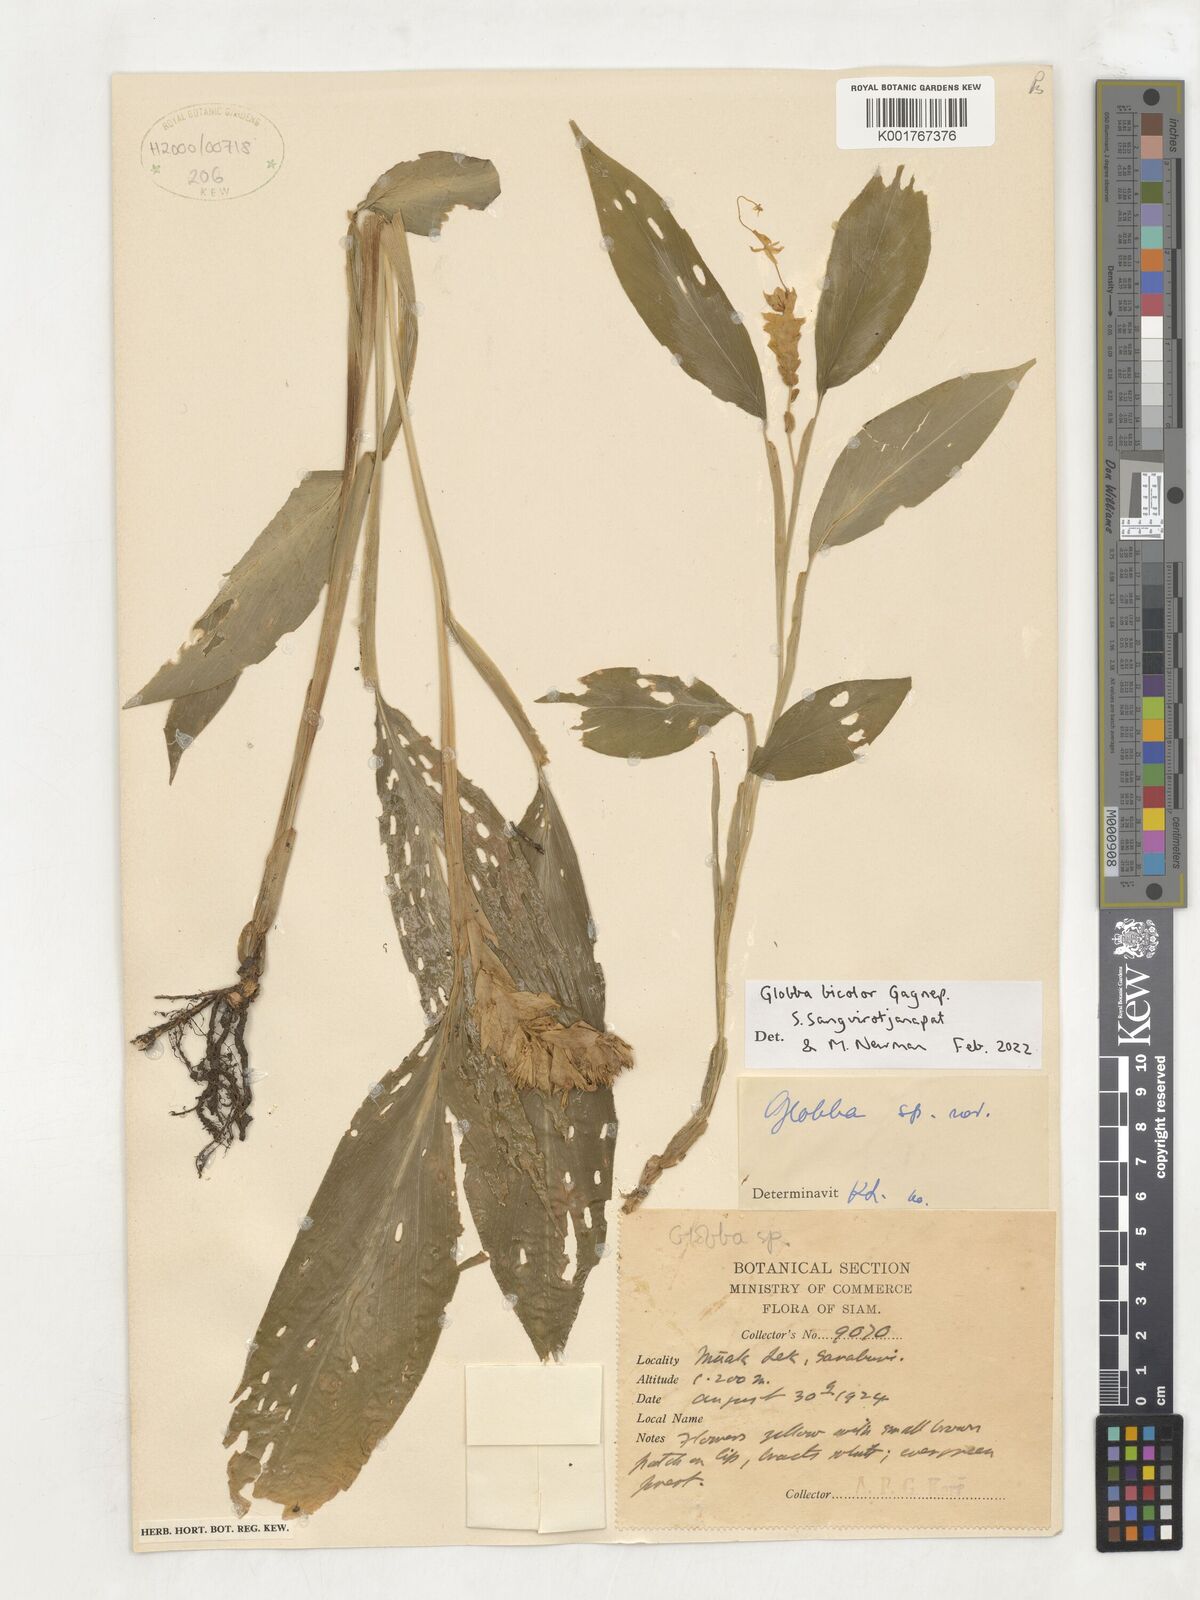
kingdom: Plantae
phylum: Tracheophyta
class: Liliopsida
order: Zingiberales
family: Zingiberaceae
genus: Globba
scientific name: Globba bicolor
